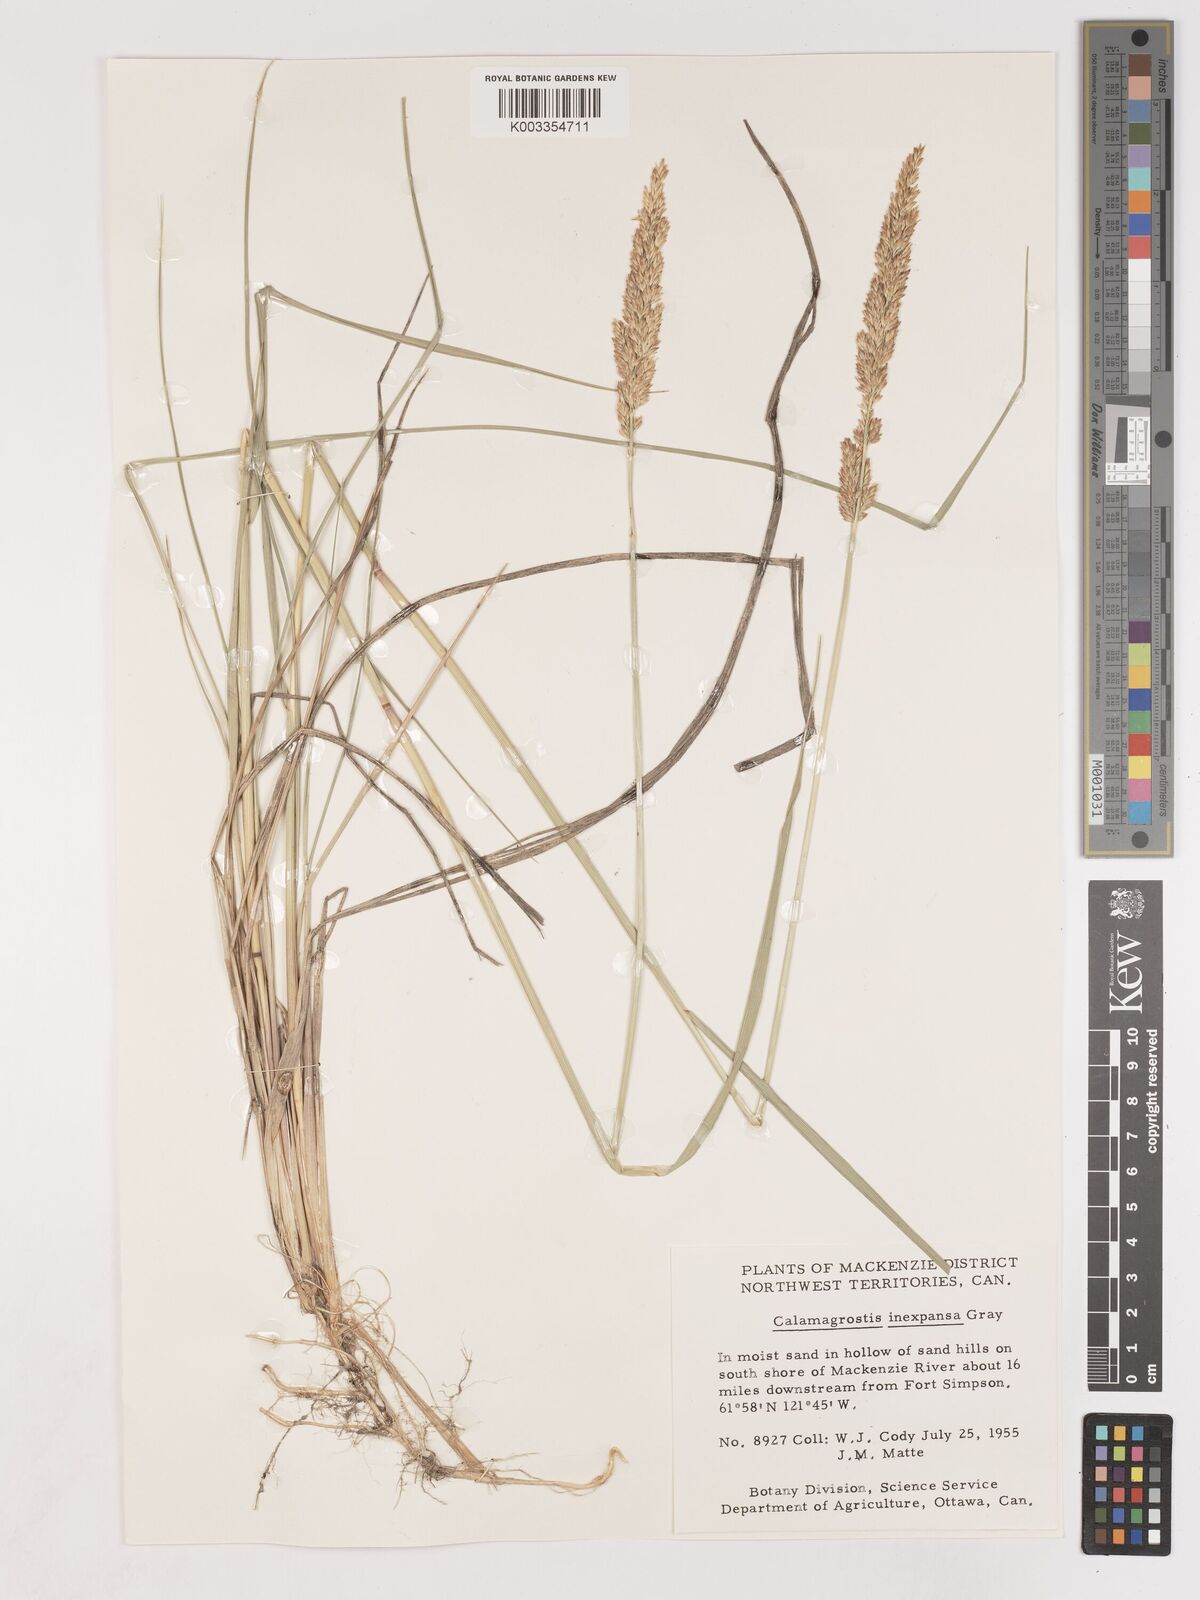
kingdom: Plantae
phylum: Tracheophyta
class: Liliopsida
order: Poales
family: Poaceae
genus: Cinnagrostis
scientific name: Cinnagrostis recta
